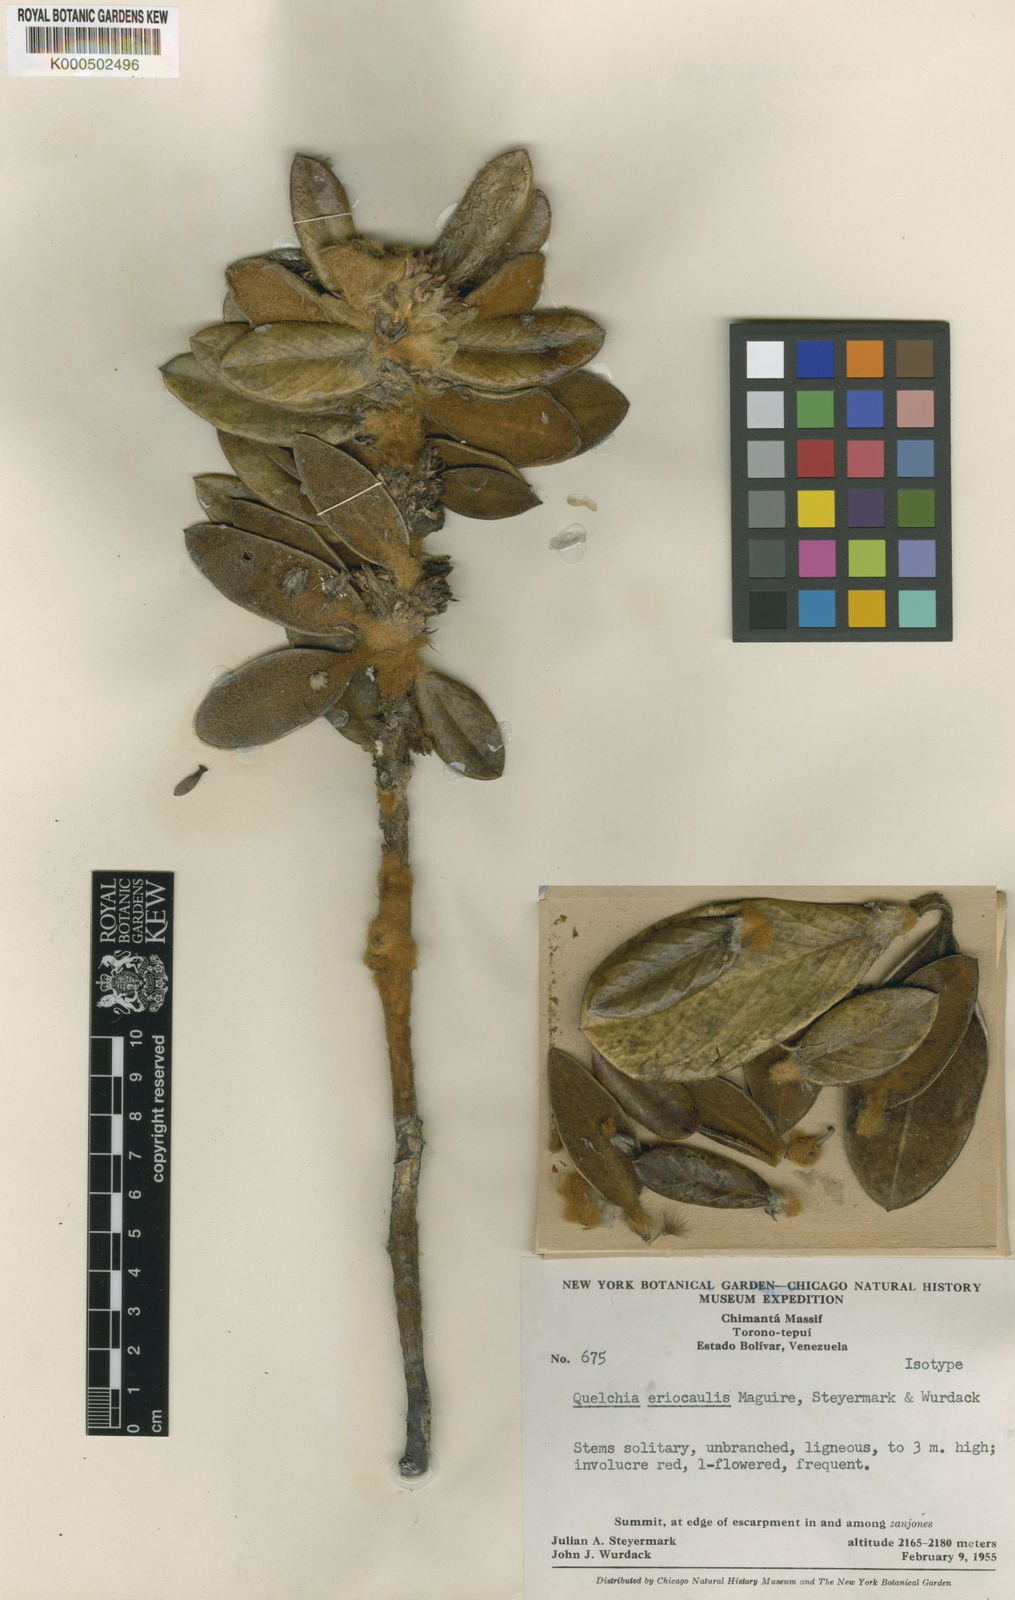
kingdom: Plantae
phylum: Tracheophyta
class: Magnoliopsida
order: Asterales
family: Asteraceae
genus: Quelchia
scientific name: Quelchia eriocaulis
